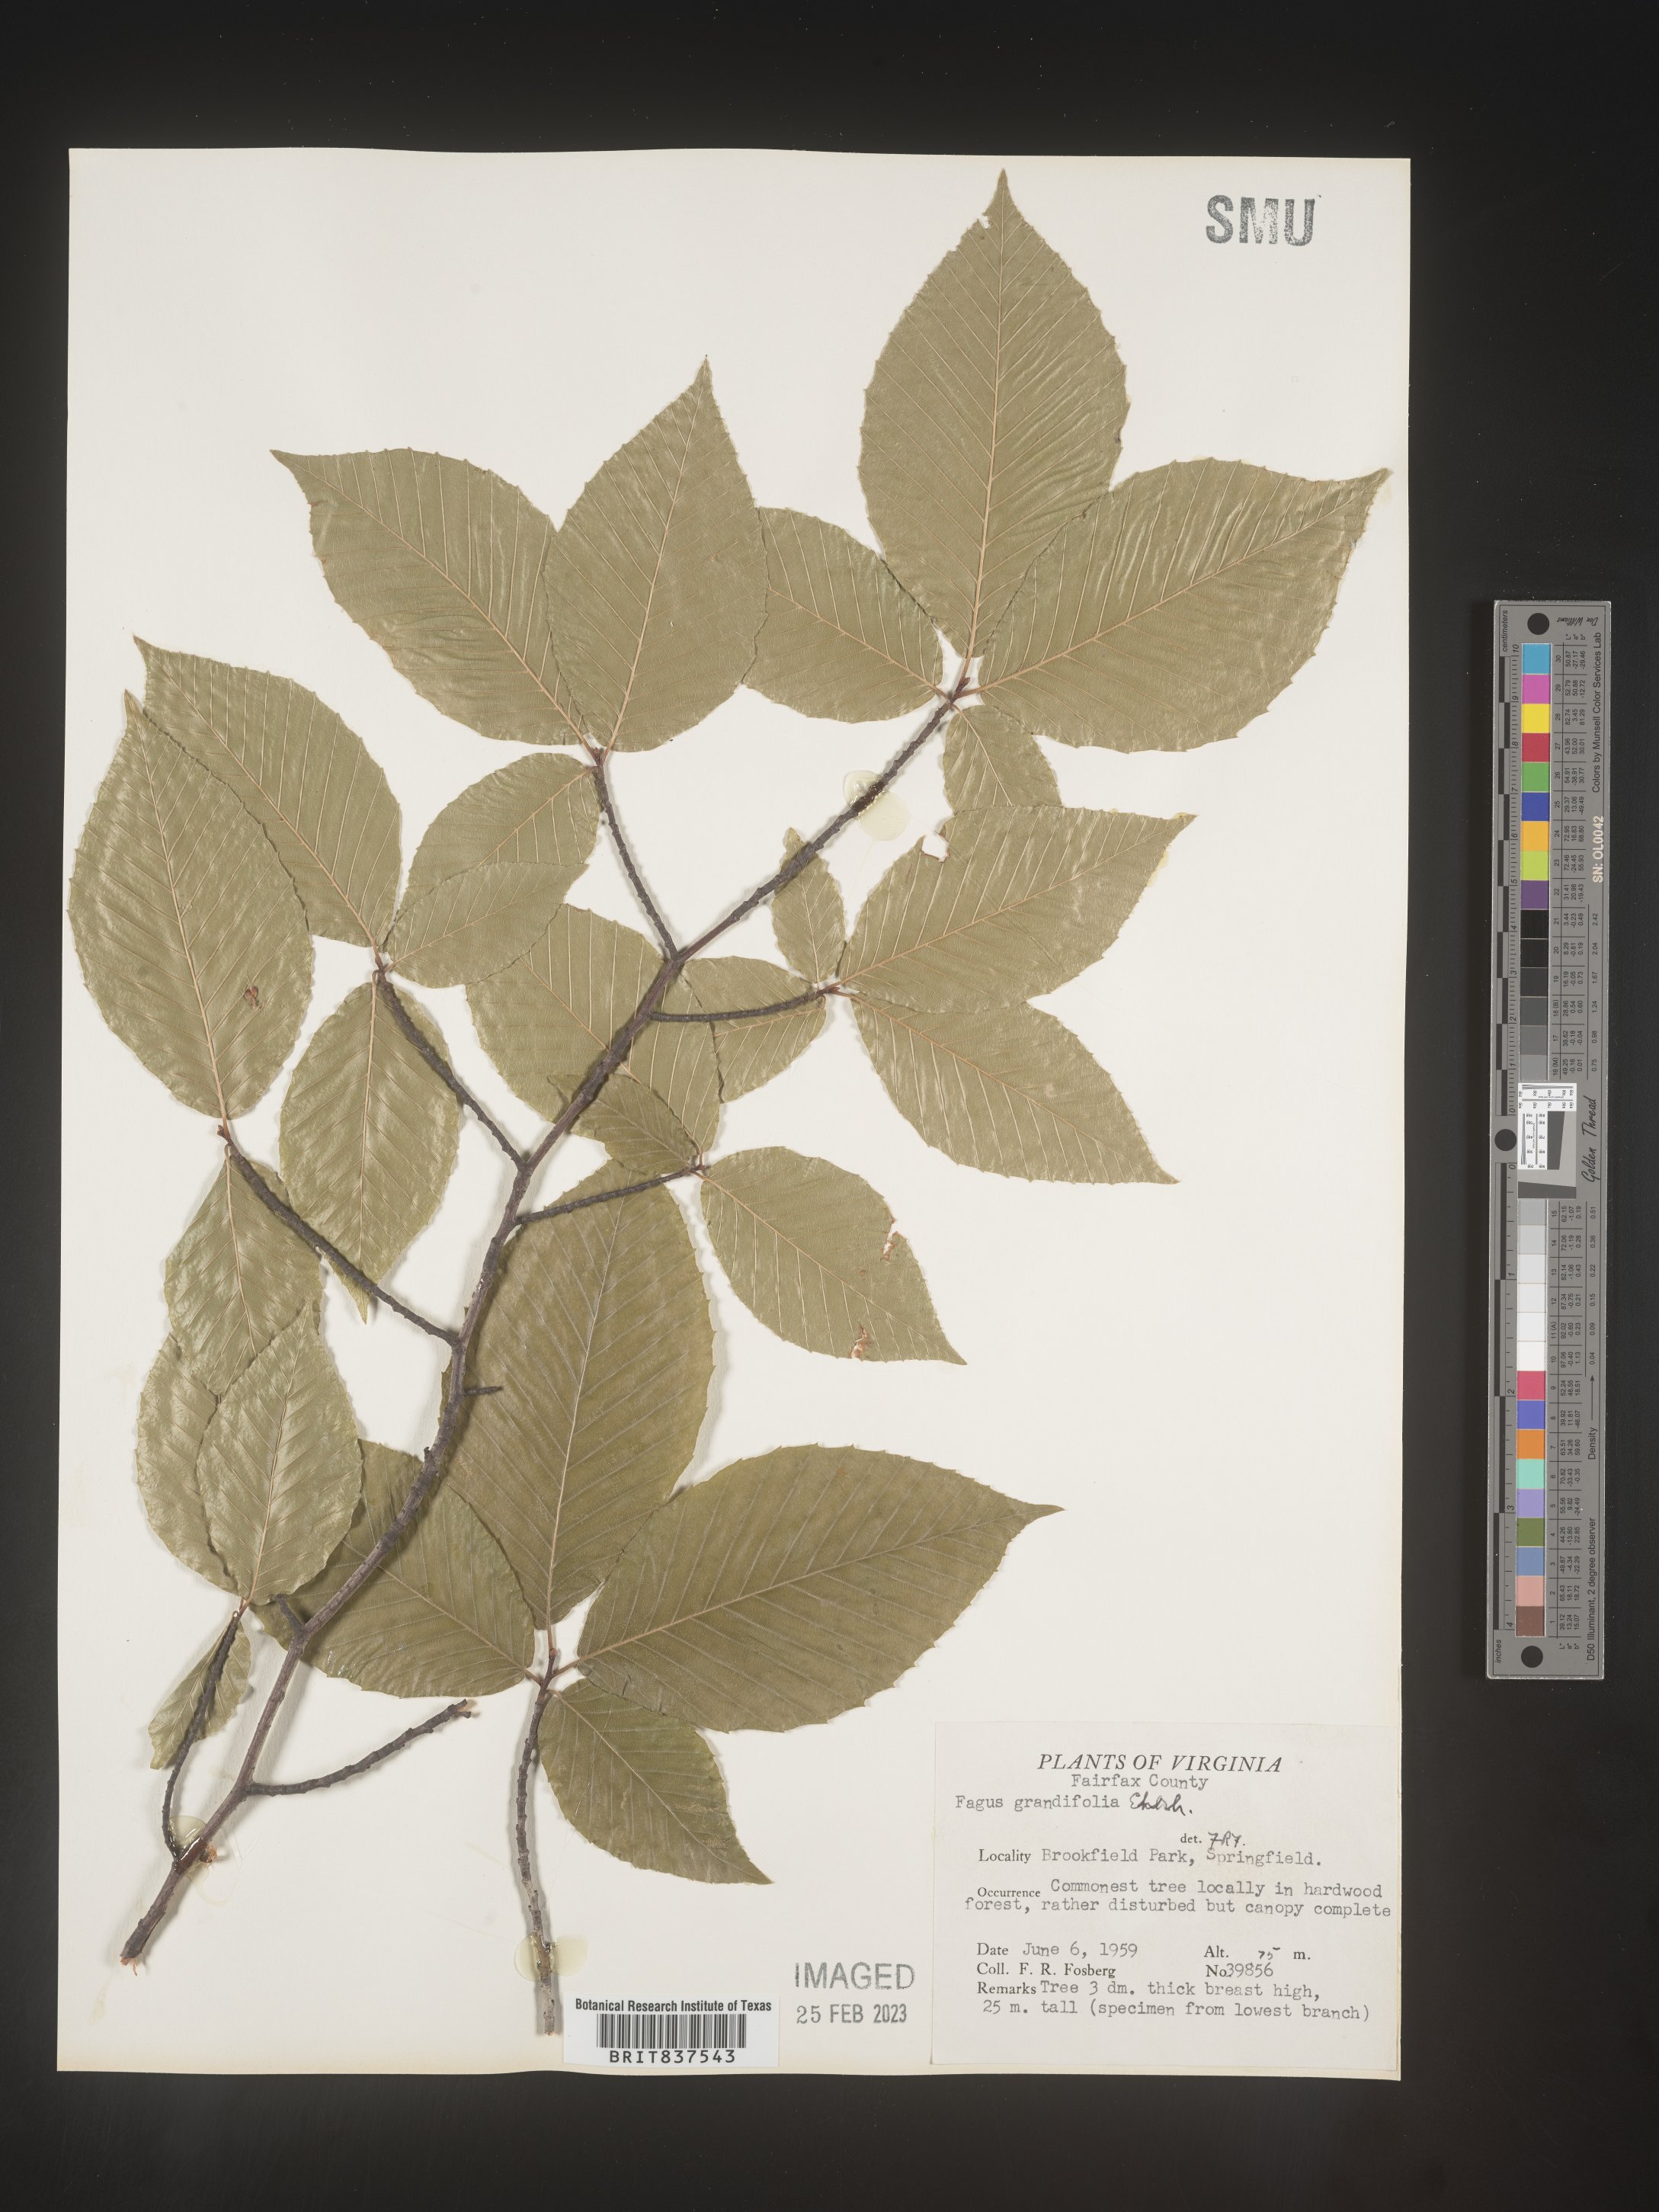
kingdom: Plantae
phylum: Tracheophyta
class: Magnoliopsida
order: Fagales
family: Fagaceae
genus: Fagus
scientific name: Fagus grandifolia
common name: American beech
